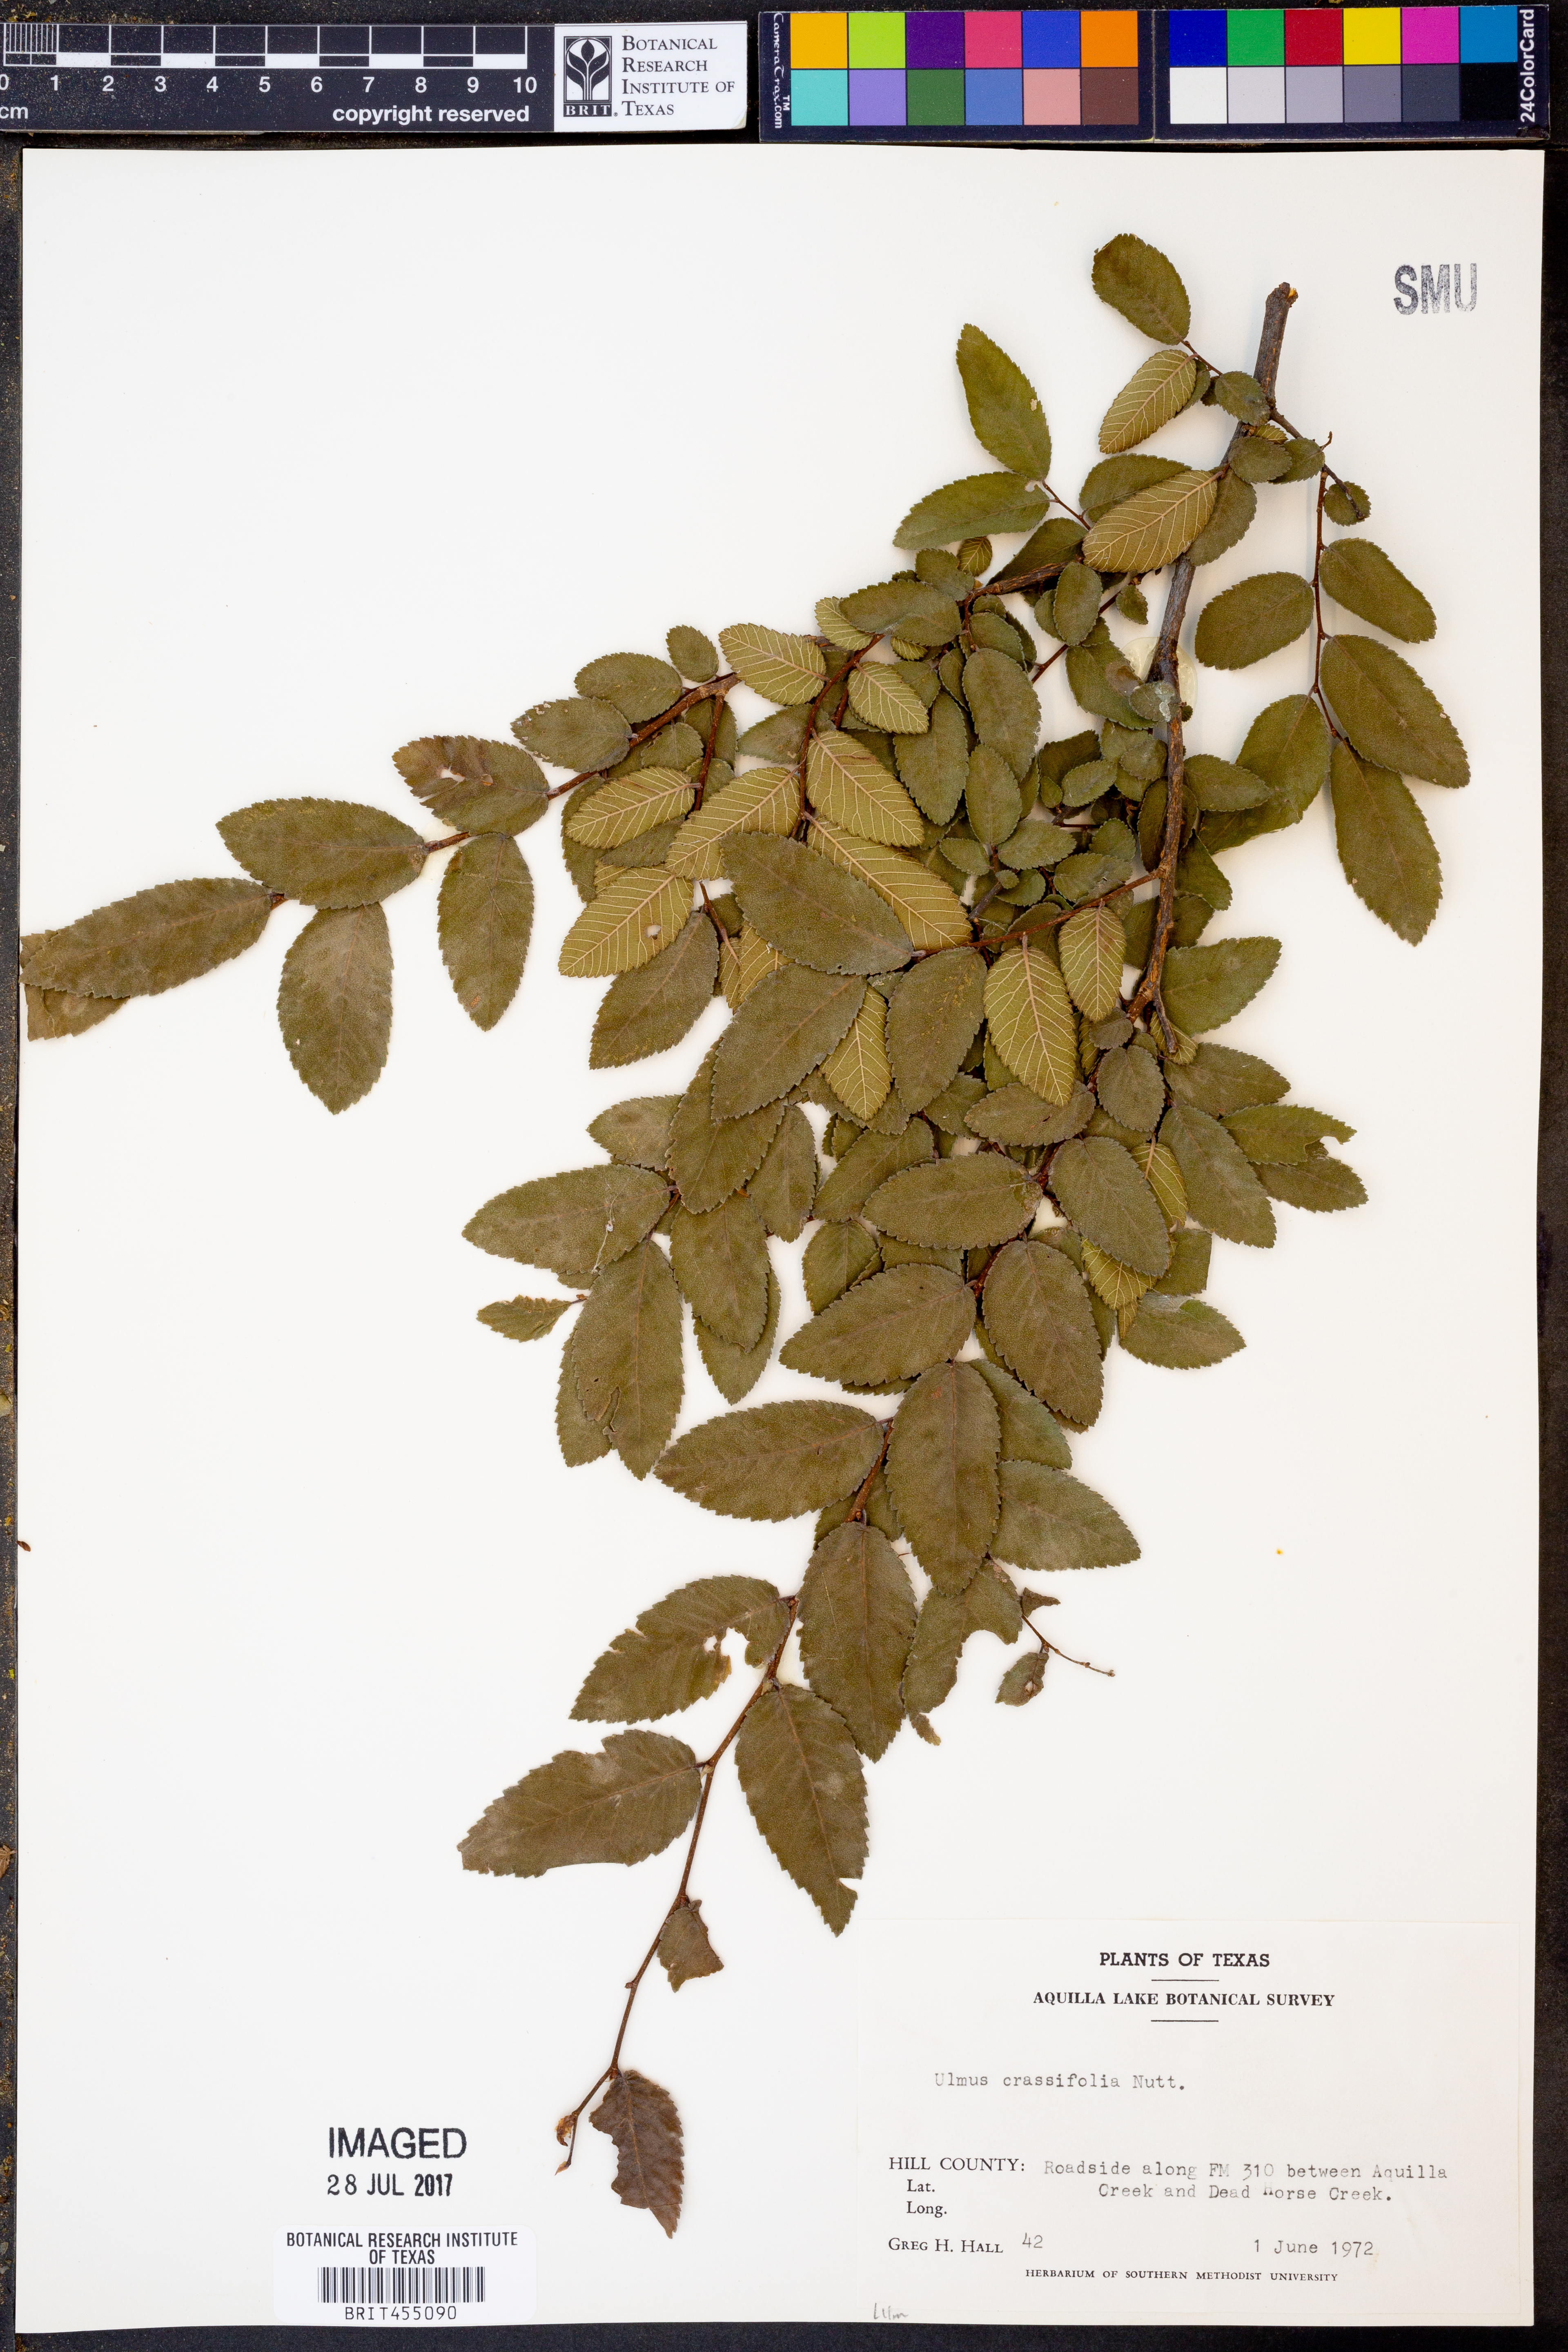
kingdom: Plantae
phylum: Tracheophyta
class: Magnoliopsida
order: Rosales
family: Ulmaceae
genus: Ulmus
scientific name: Ulmus crassifolia
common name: Basket elm
